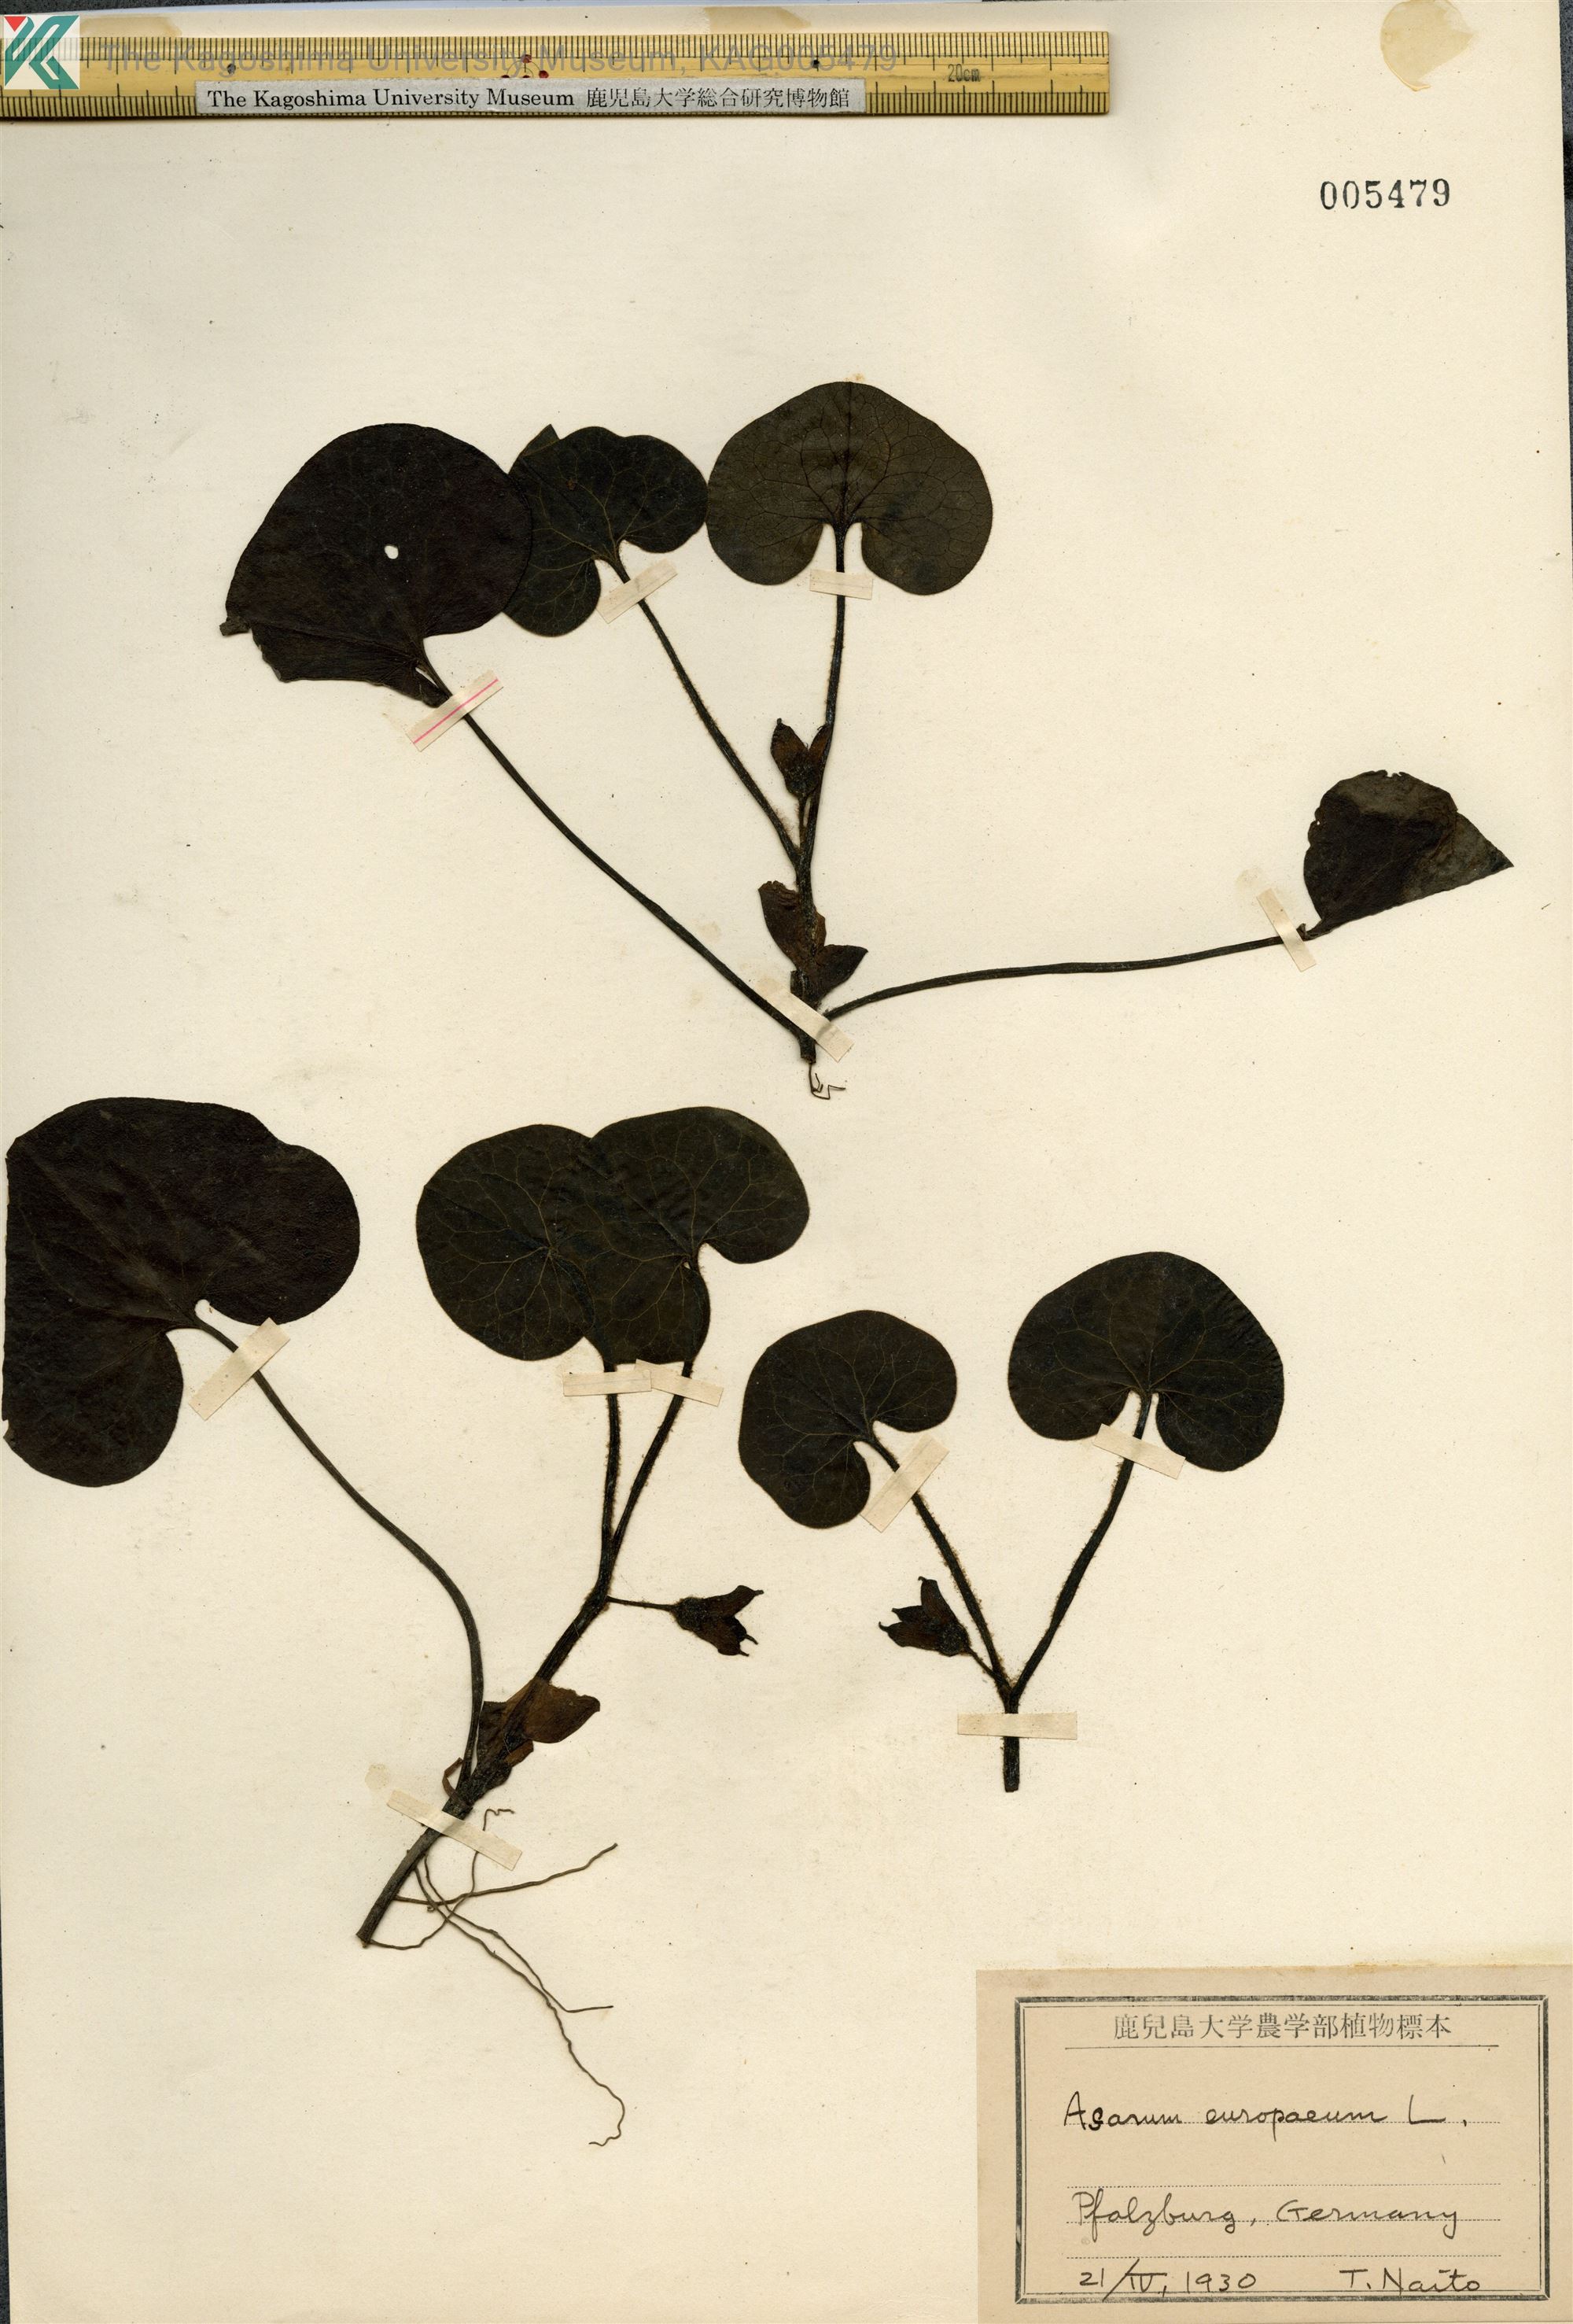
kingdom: Plantae
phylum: Tracheophyta
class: Magnoliopsida
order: Piperales
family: Aristolochiaceae
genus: Asarum
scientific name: Asarum europaeum
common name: Asarabacca
